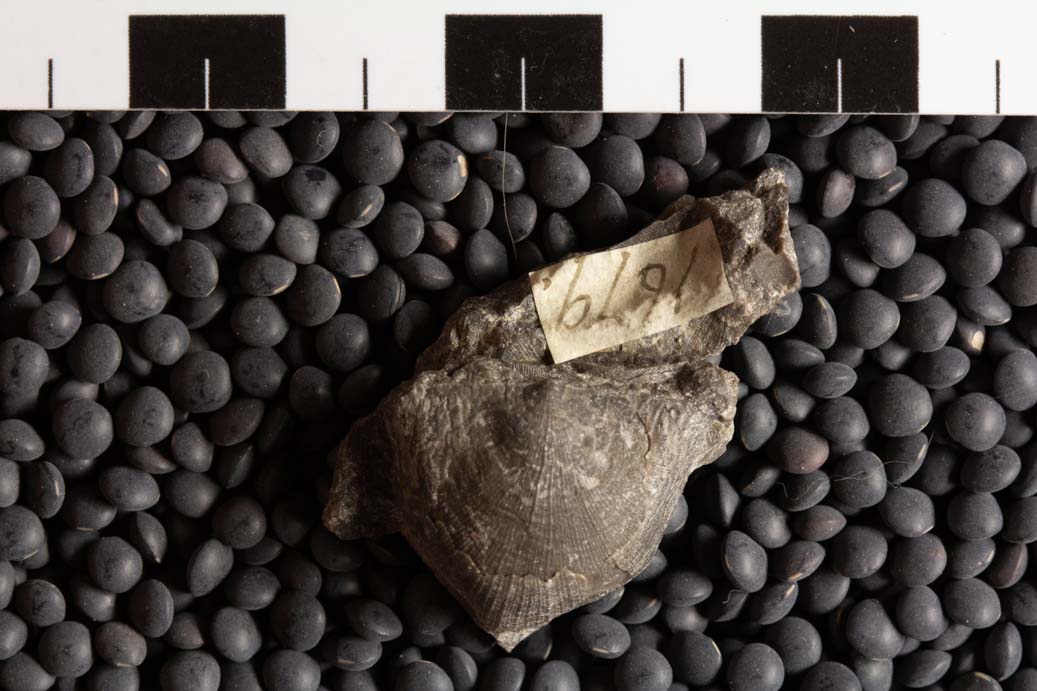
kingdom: Animalia
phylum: Brachiopoda
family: Streptorhynchidae
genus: Streptorhynchus
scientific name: Streptorhynchus
